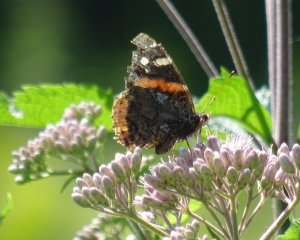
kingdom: Animalia
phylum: Arthropoda
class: Insecta
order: Lepidoptera
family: Nymphalidae
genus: Vanessa
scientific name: Vanessa atalanta
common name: Red Admiral
